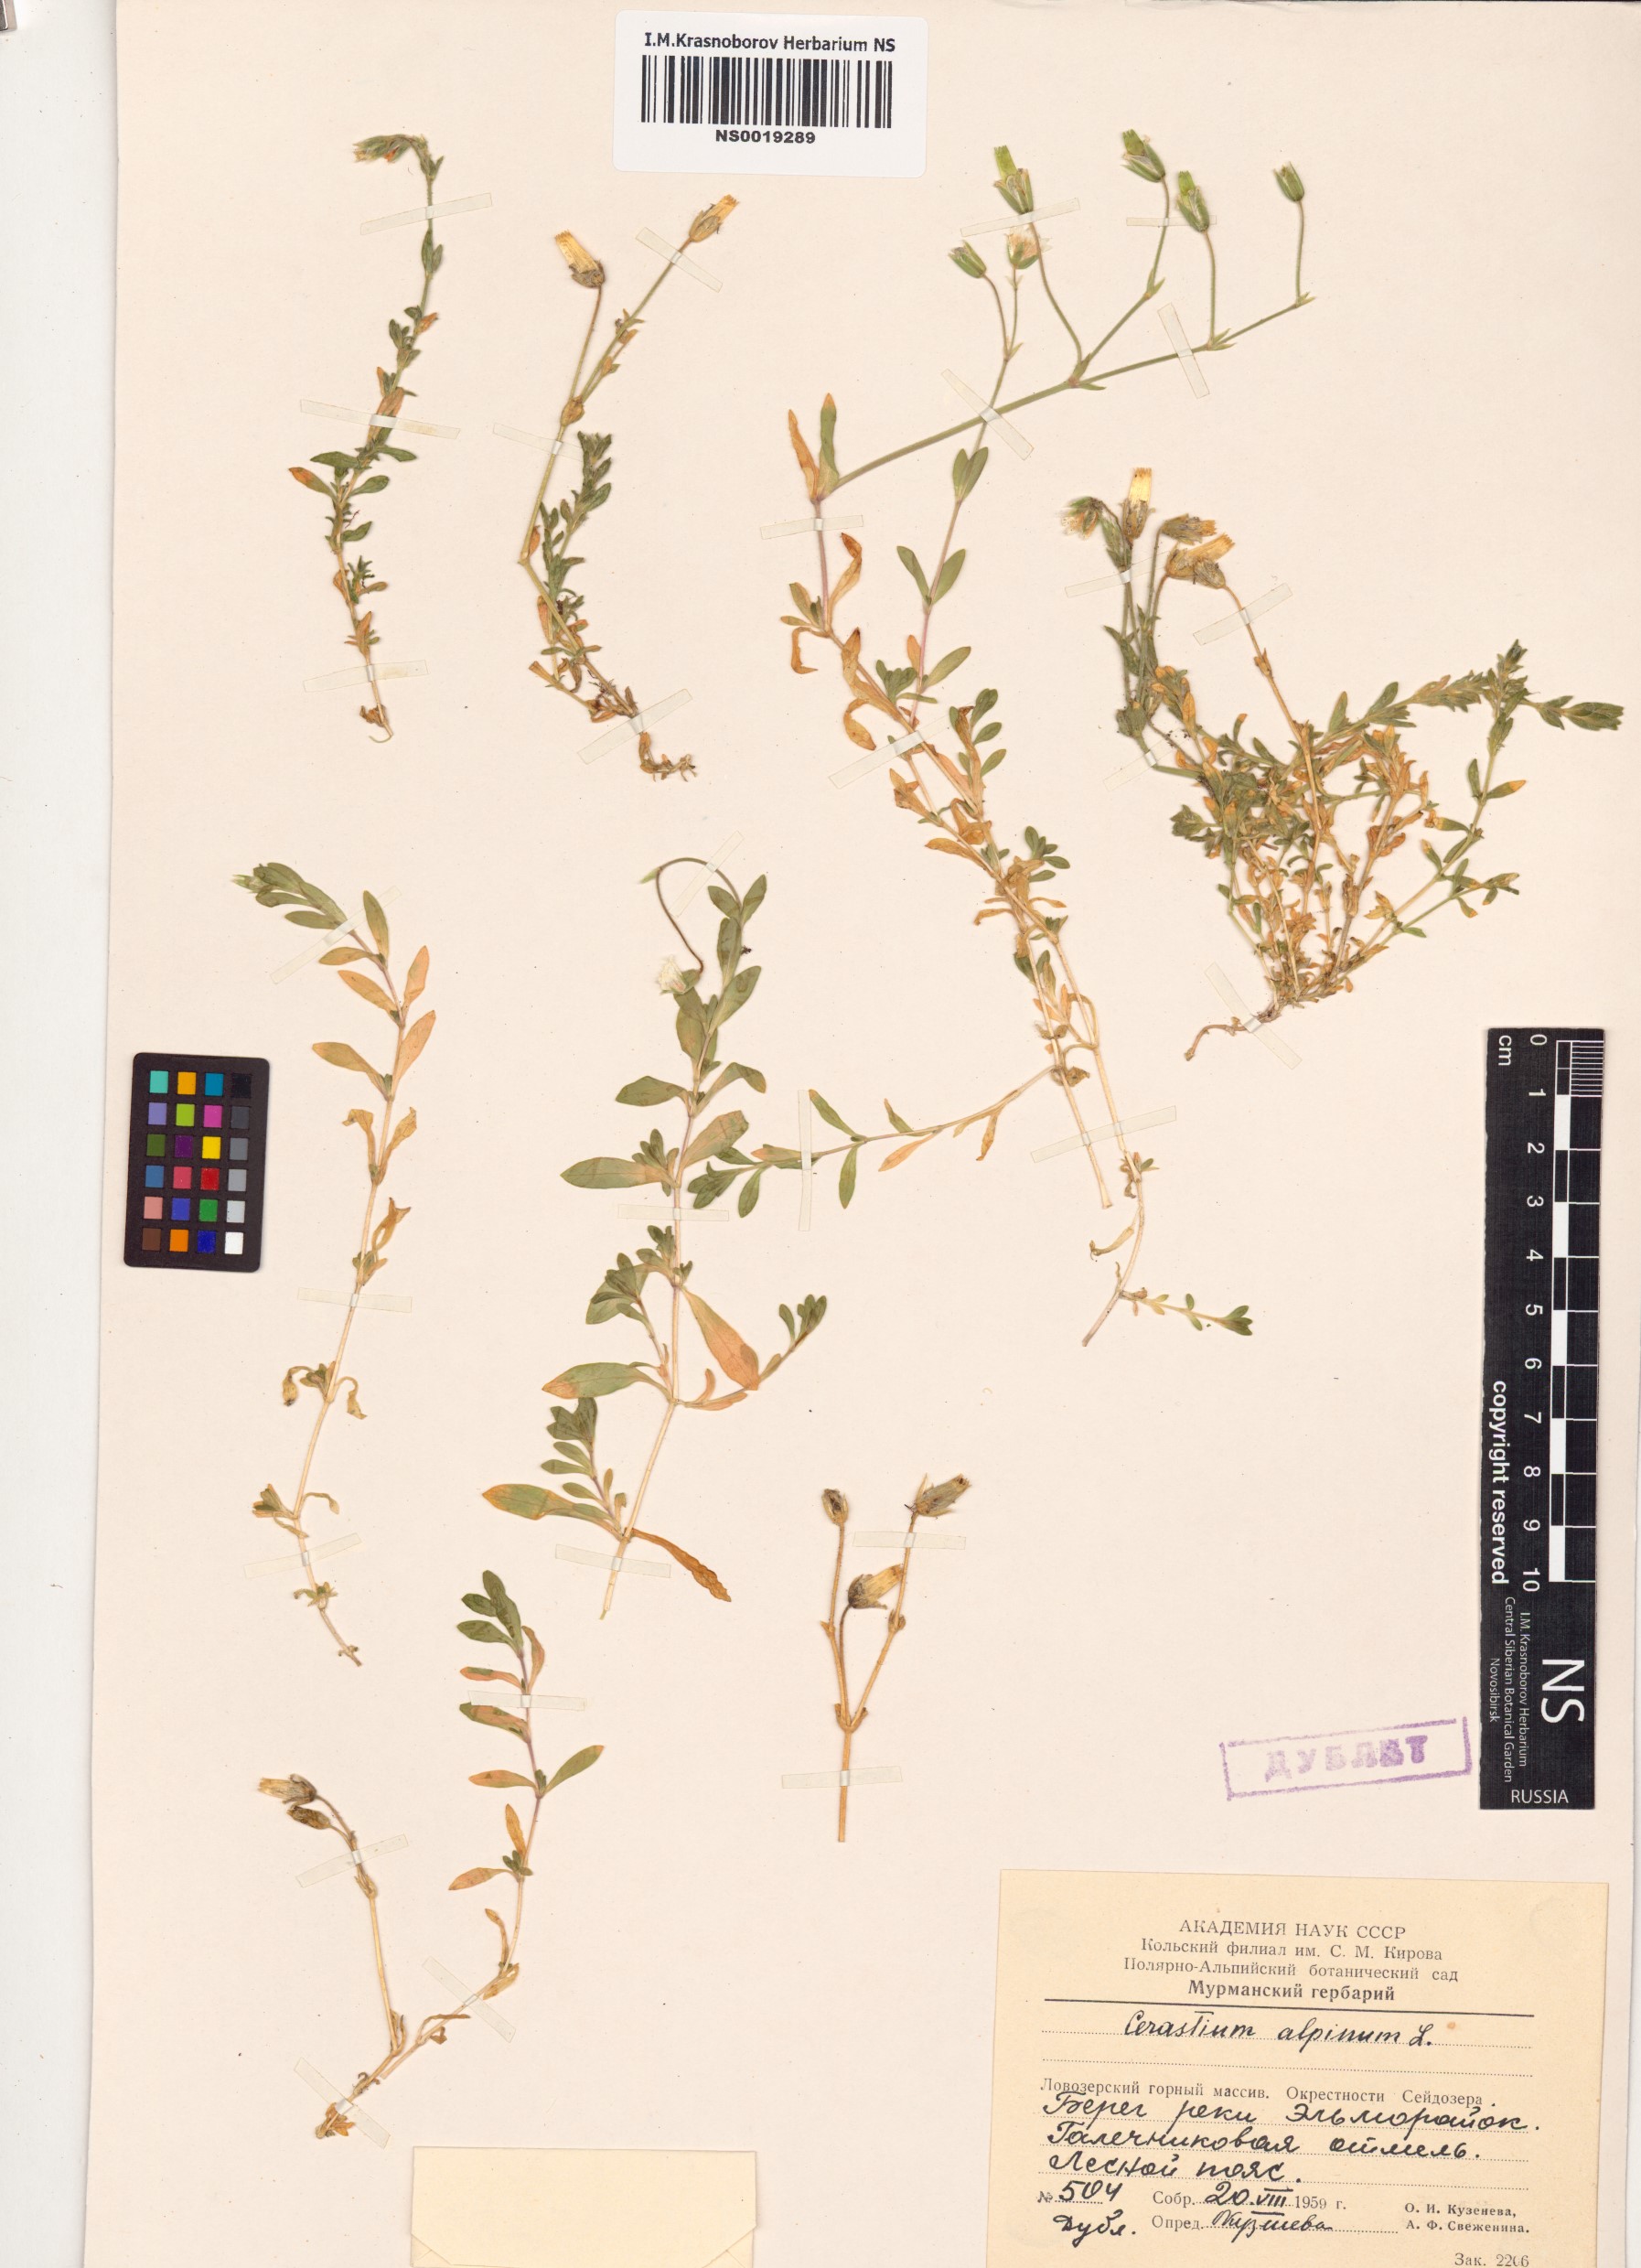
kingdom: Plantae
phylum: Tracheophyta
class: Magnoliopsida
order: Caryophyllales
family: Caryophyllaceae
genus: Cerastium
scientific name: Cerastium alpinum
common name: Alpine mouse-ear
